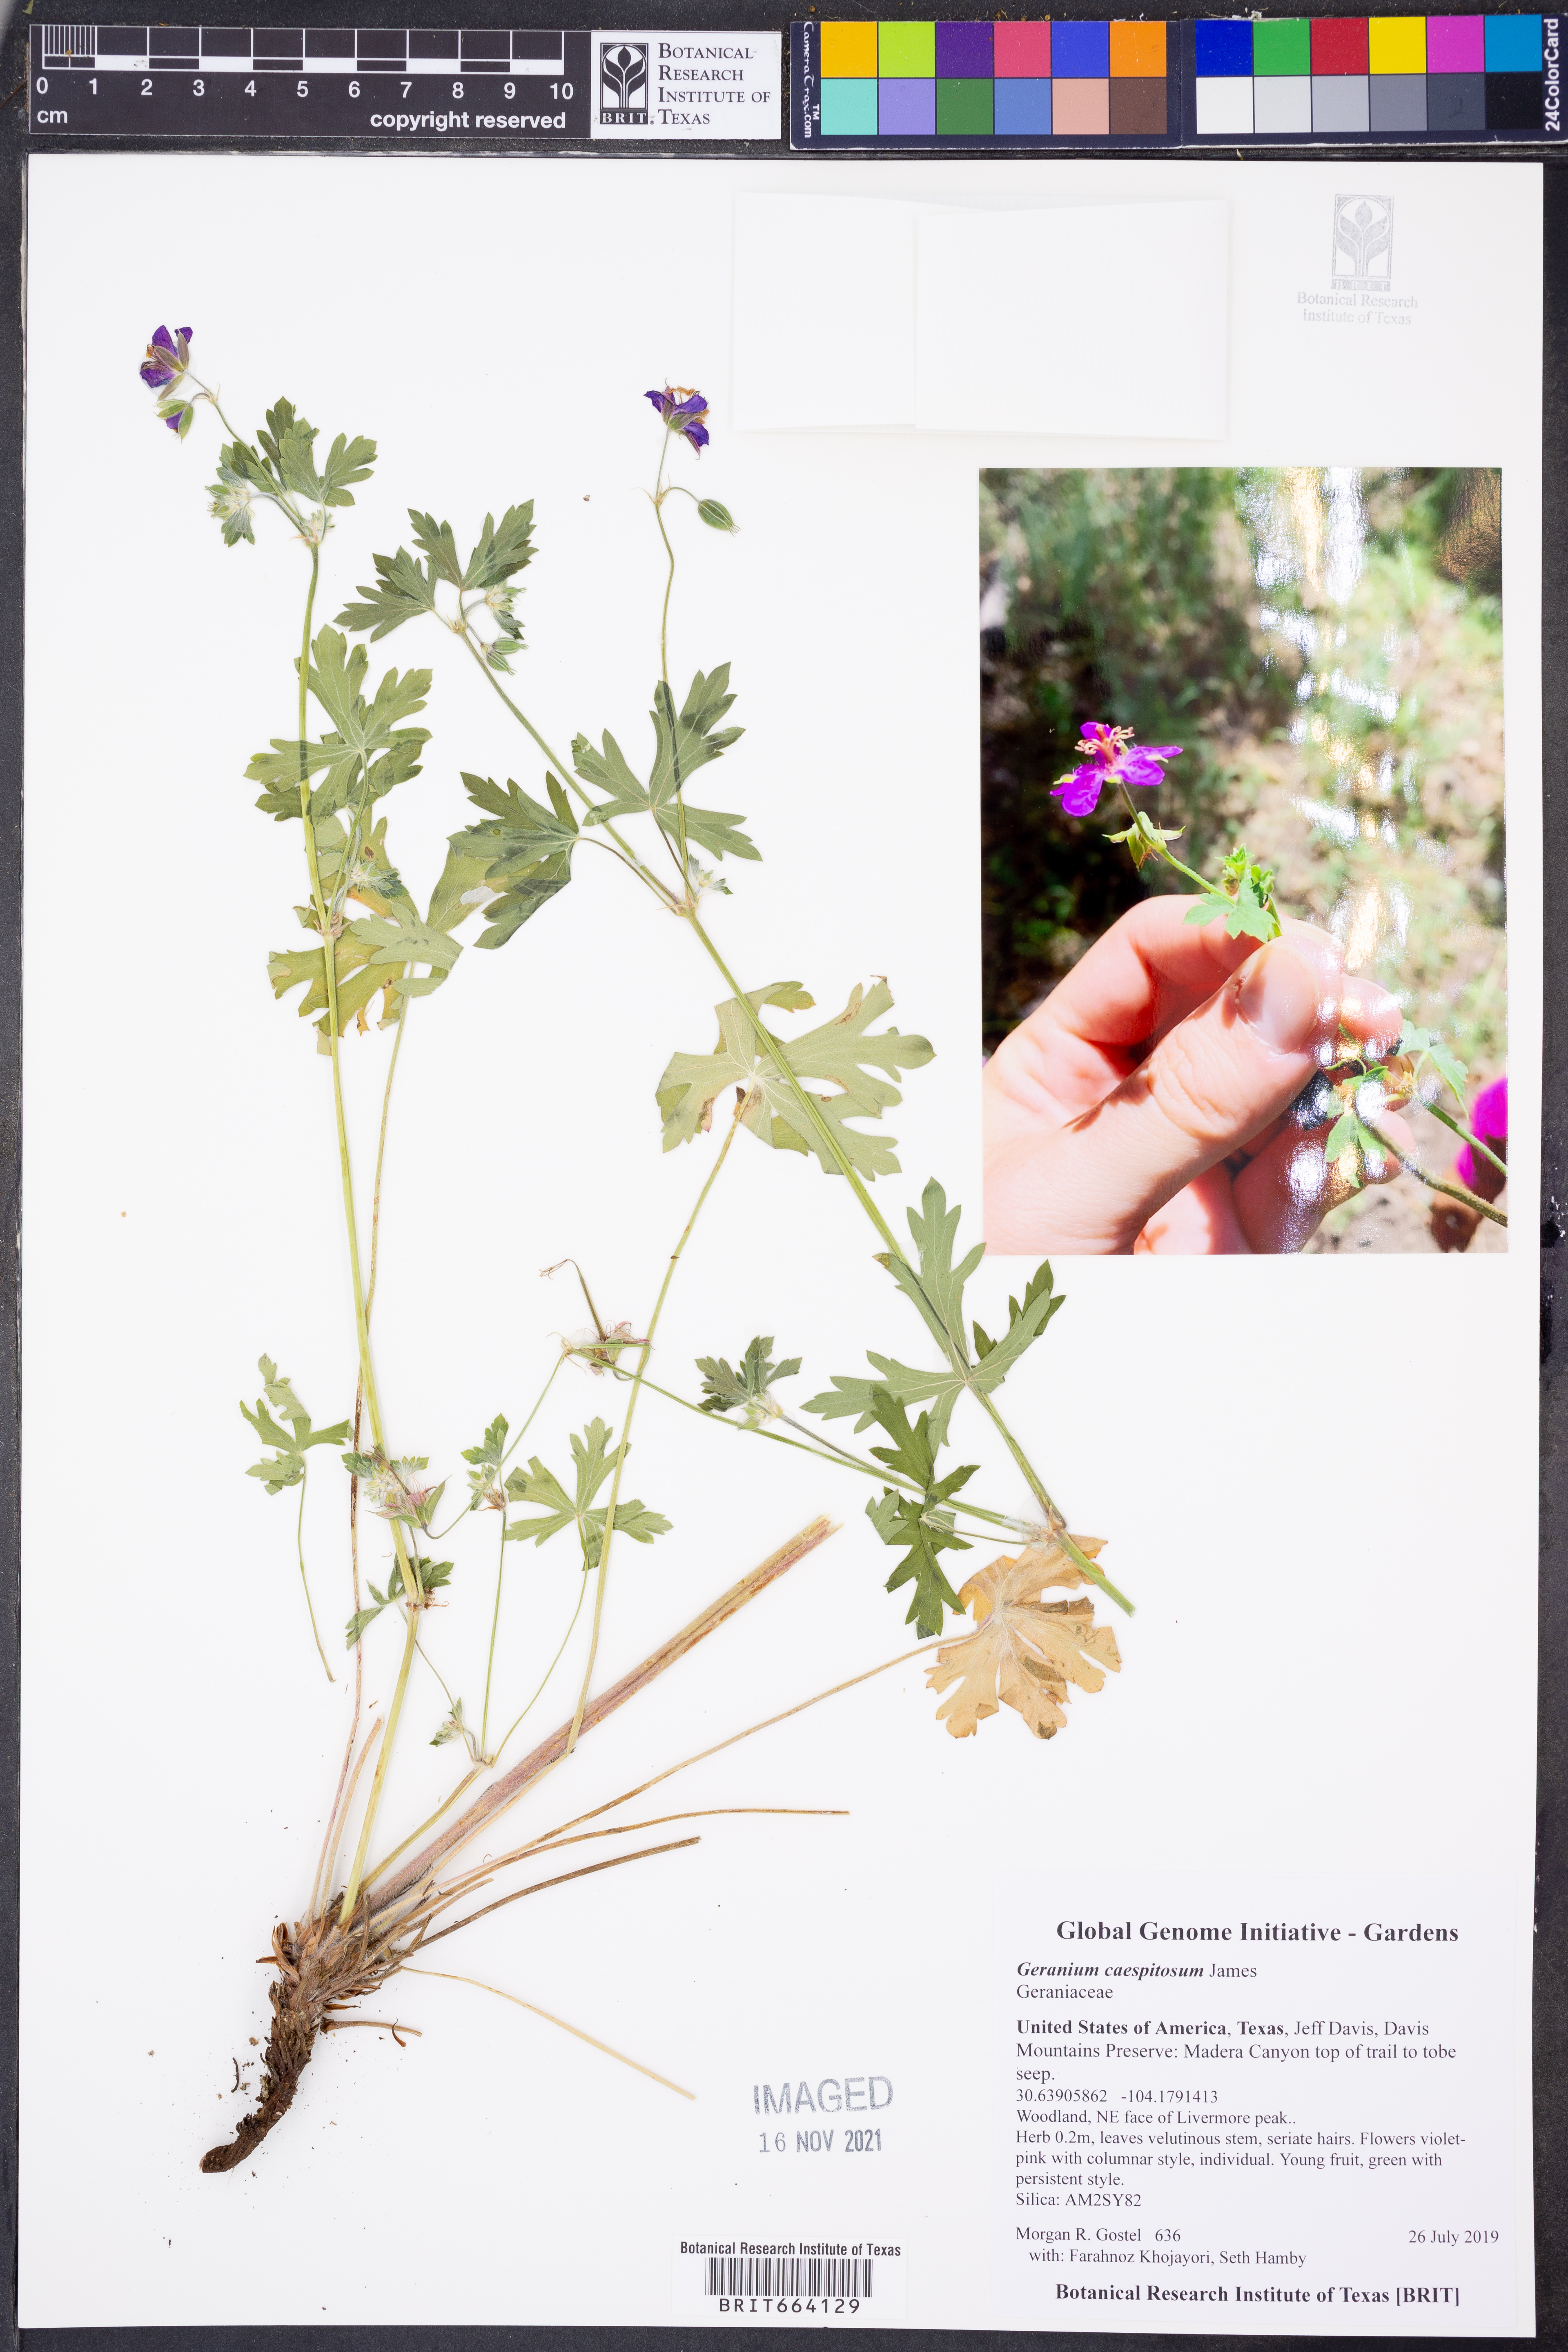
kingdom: Plantae
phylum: Tracheophyta
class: Magnoliopsida
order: Geraniales
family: Geraniaceae
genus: Geranium
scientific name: Geranium caespitosum
